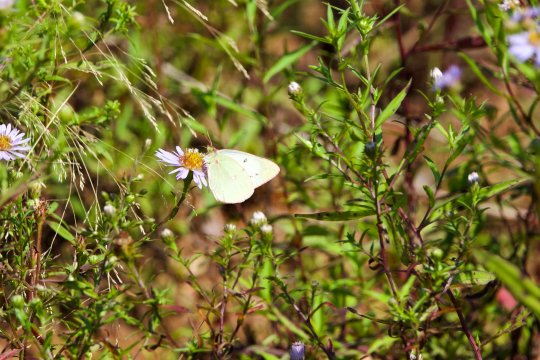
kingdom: Animalia
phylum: Arthropoda
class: Insecta
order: Lepidoptera
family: Pieridae
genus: Colias
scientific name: Colias philodice
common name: Clouded Sulphur
